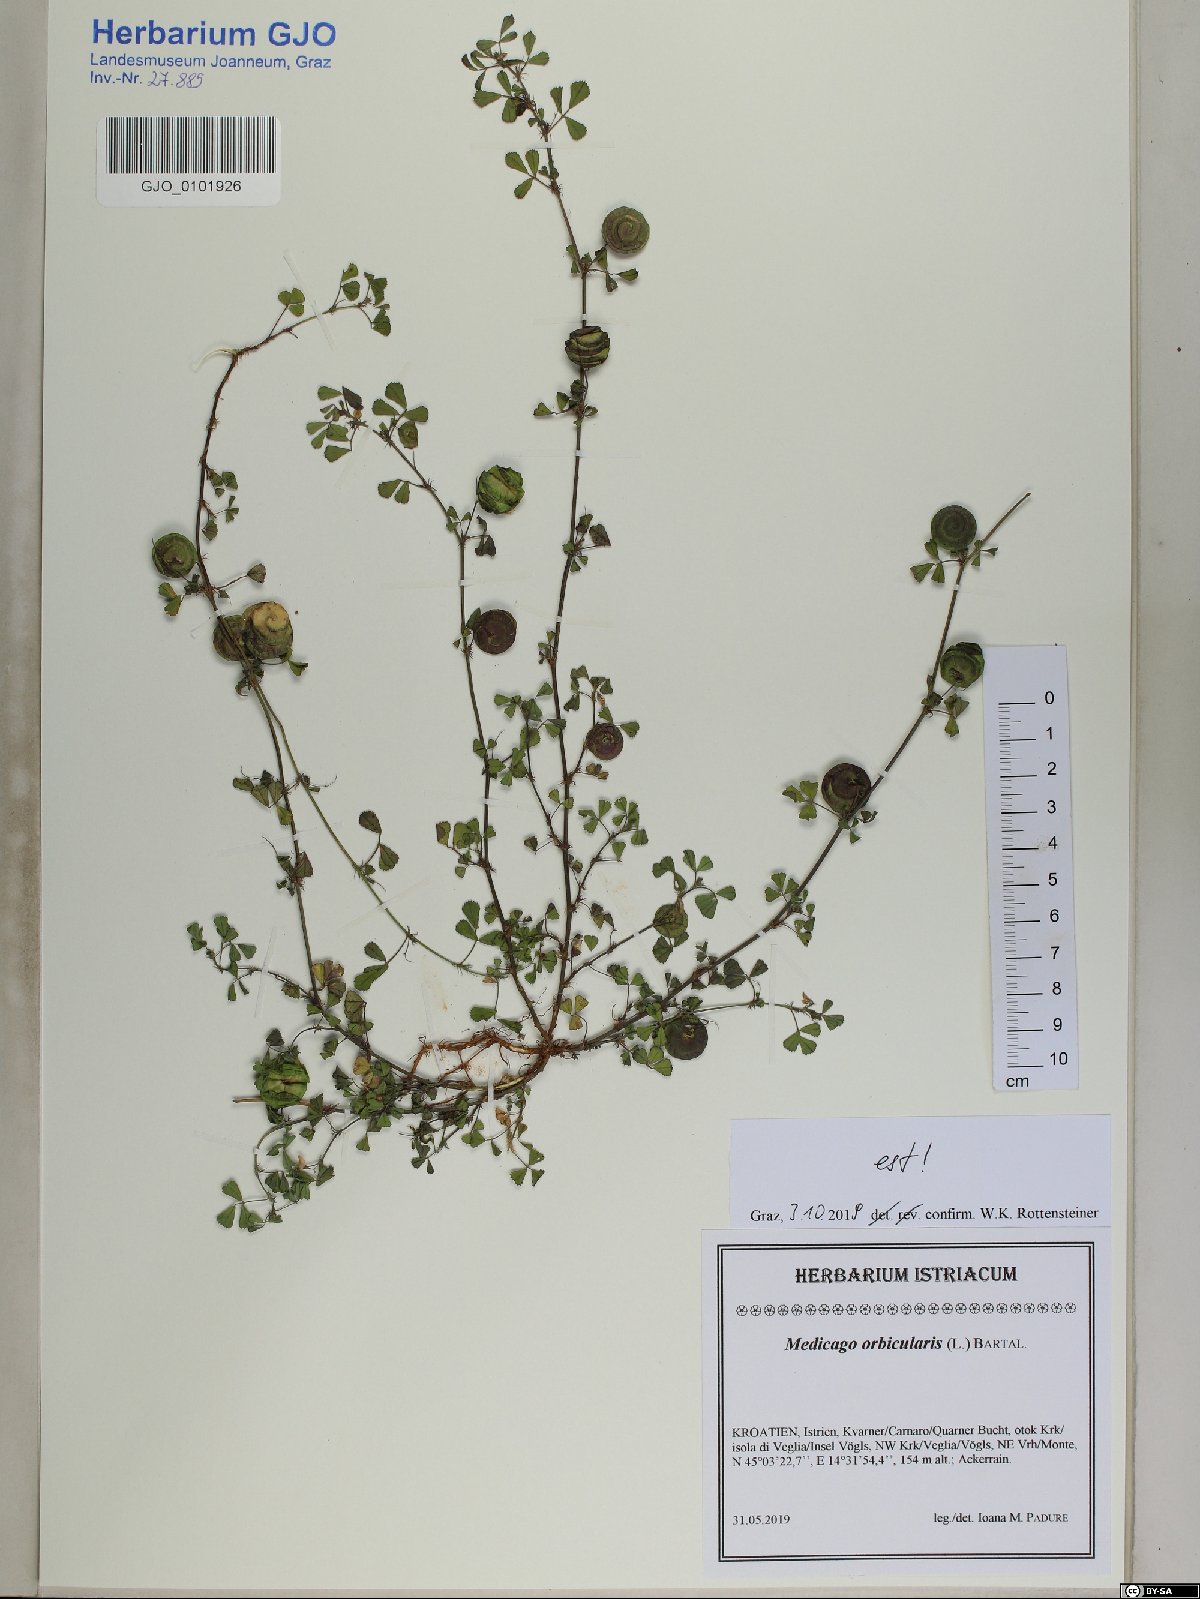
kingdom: Plantae
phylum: Tracheophyta
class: Magnoliopsida
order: Fabales
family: Fabaceae
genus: Medicago
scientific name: Medicago orbicularis
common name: Button medick
